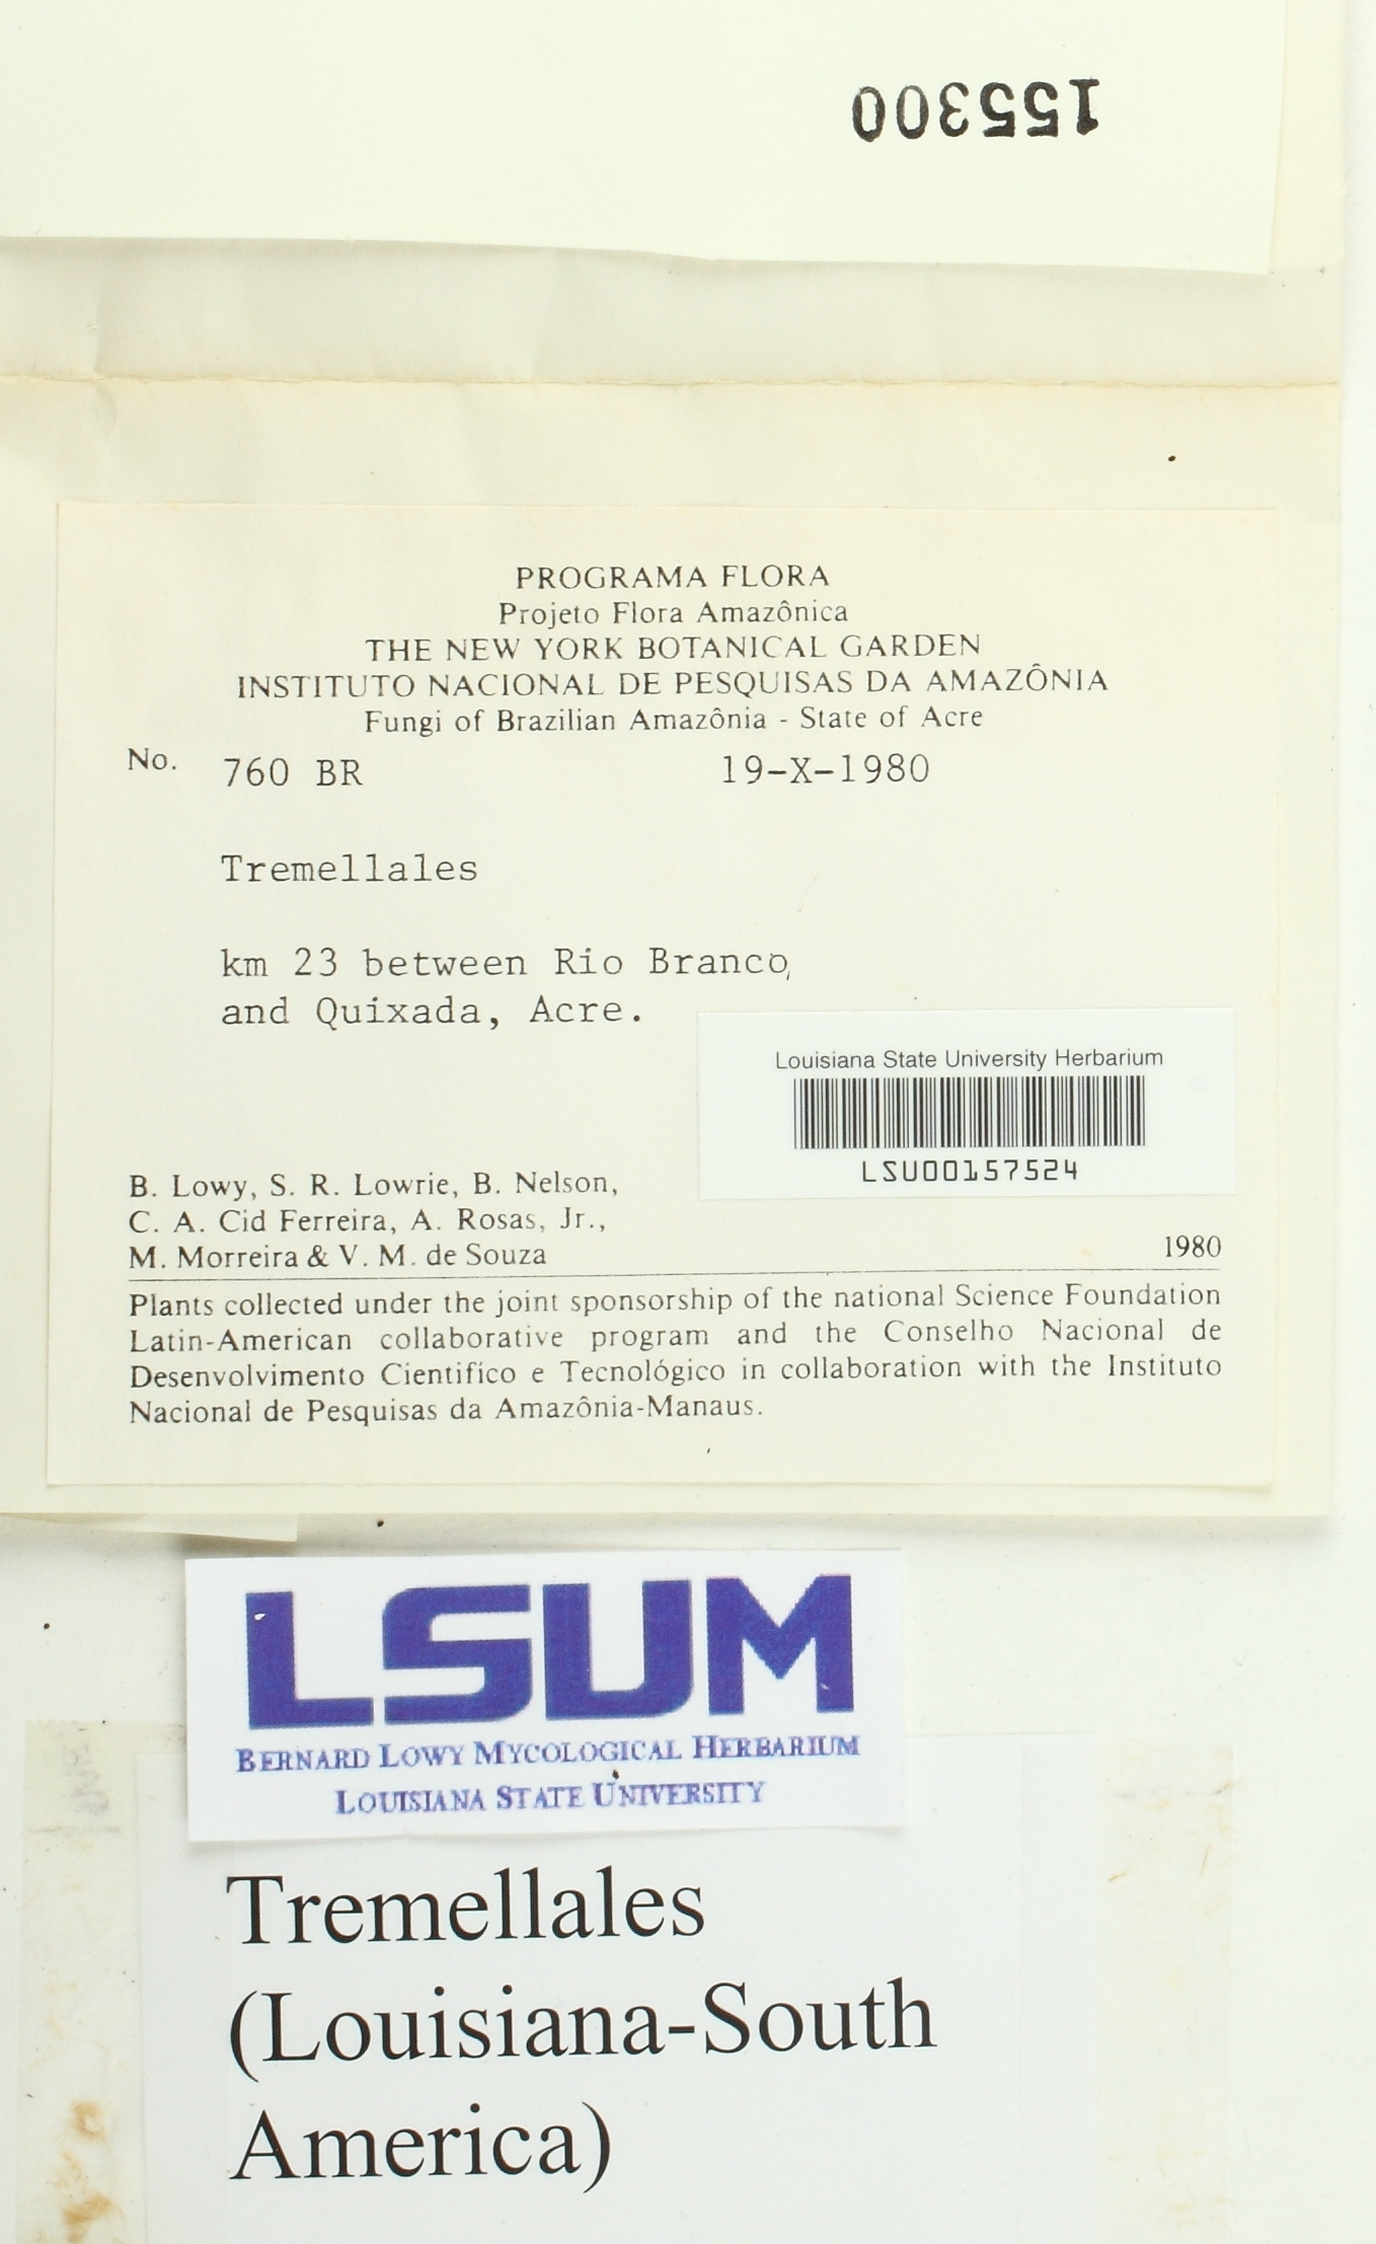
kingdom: Fungi
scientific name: Fungi
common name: Fungi
